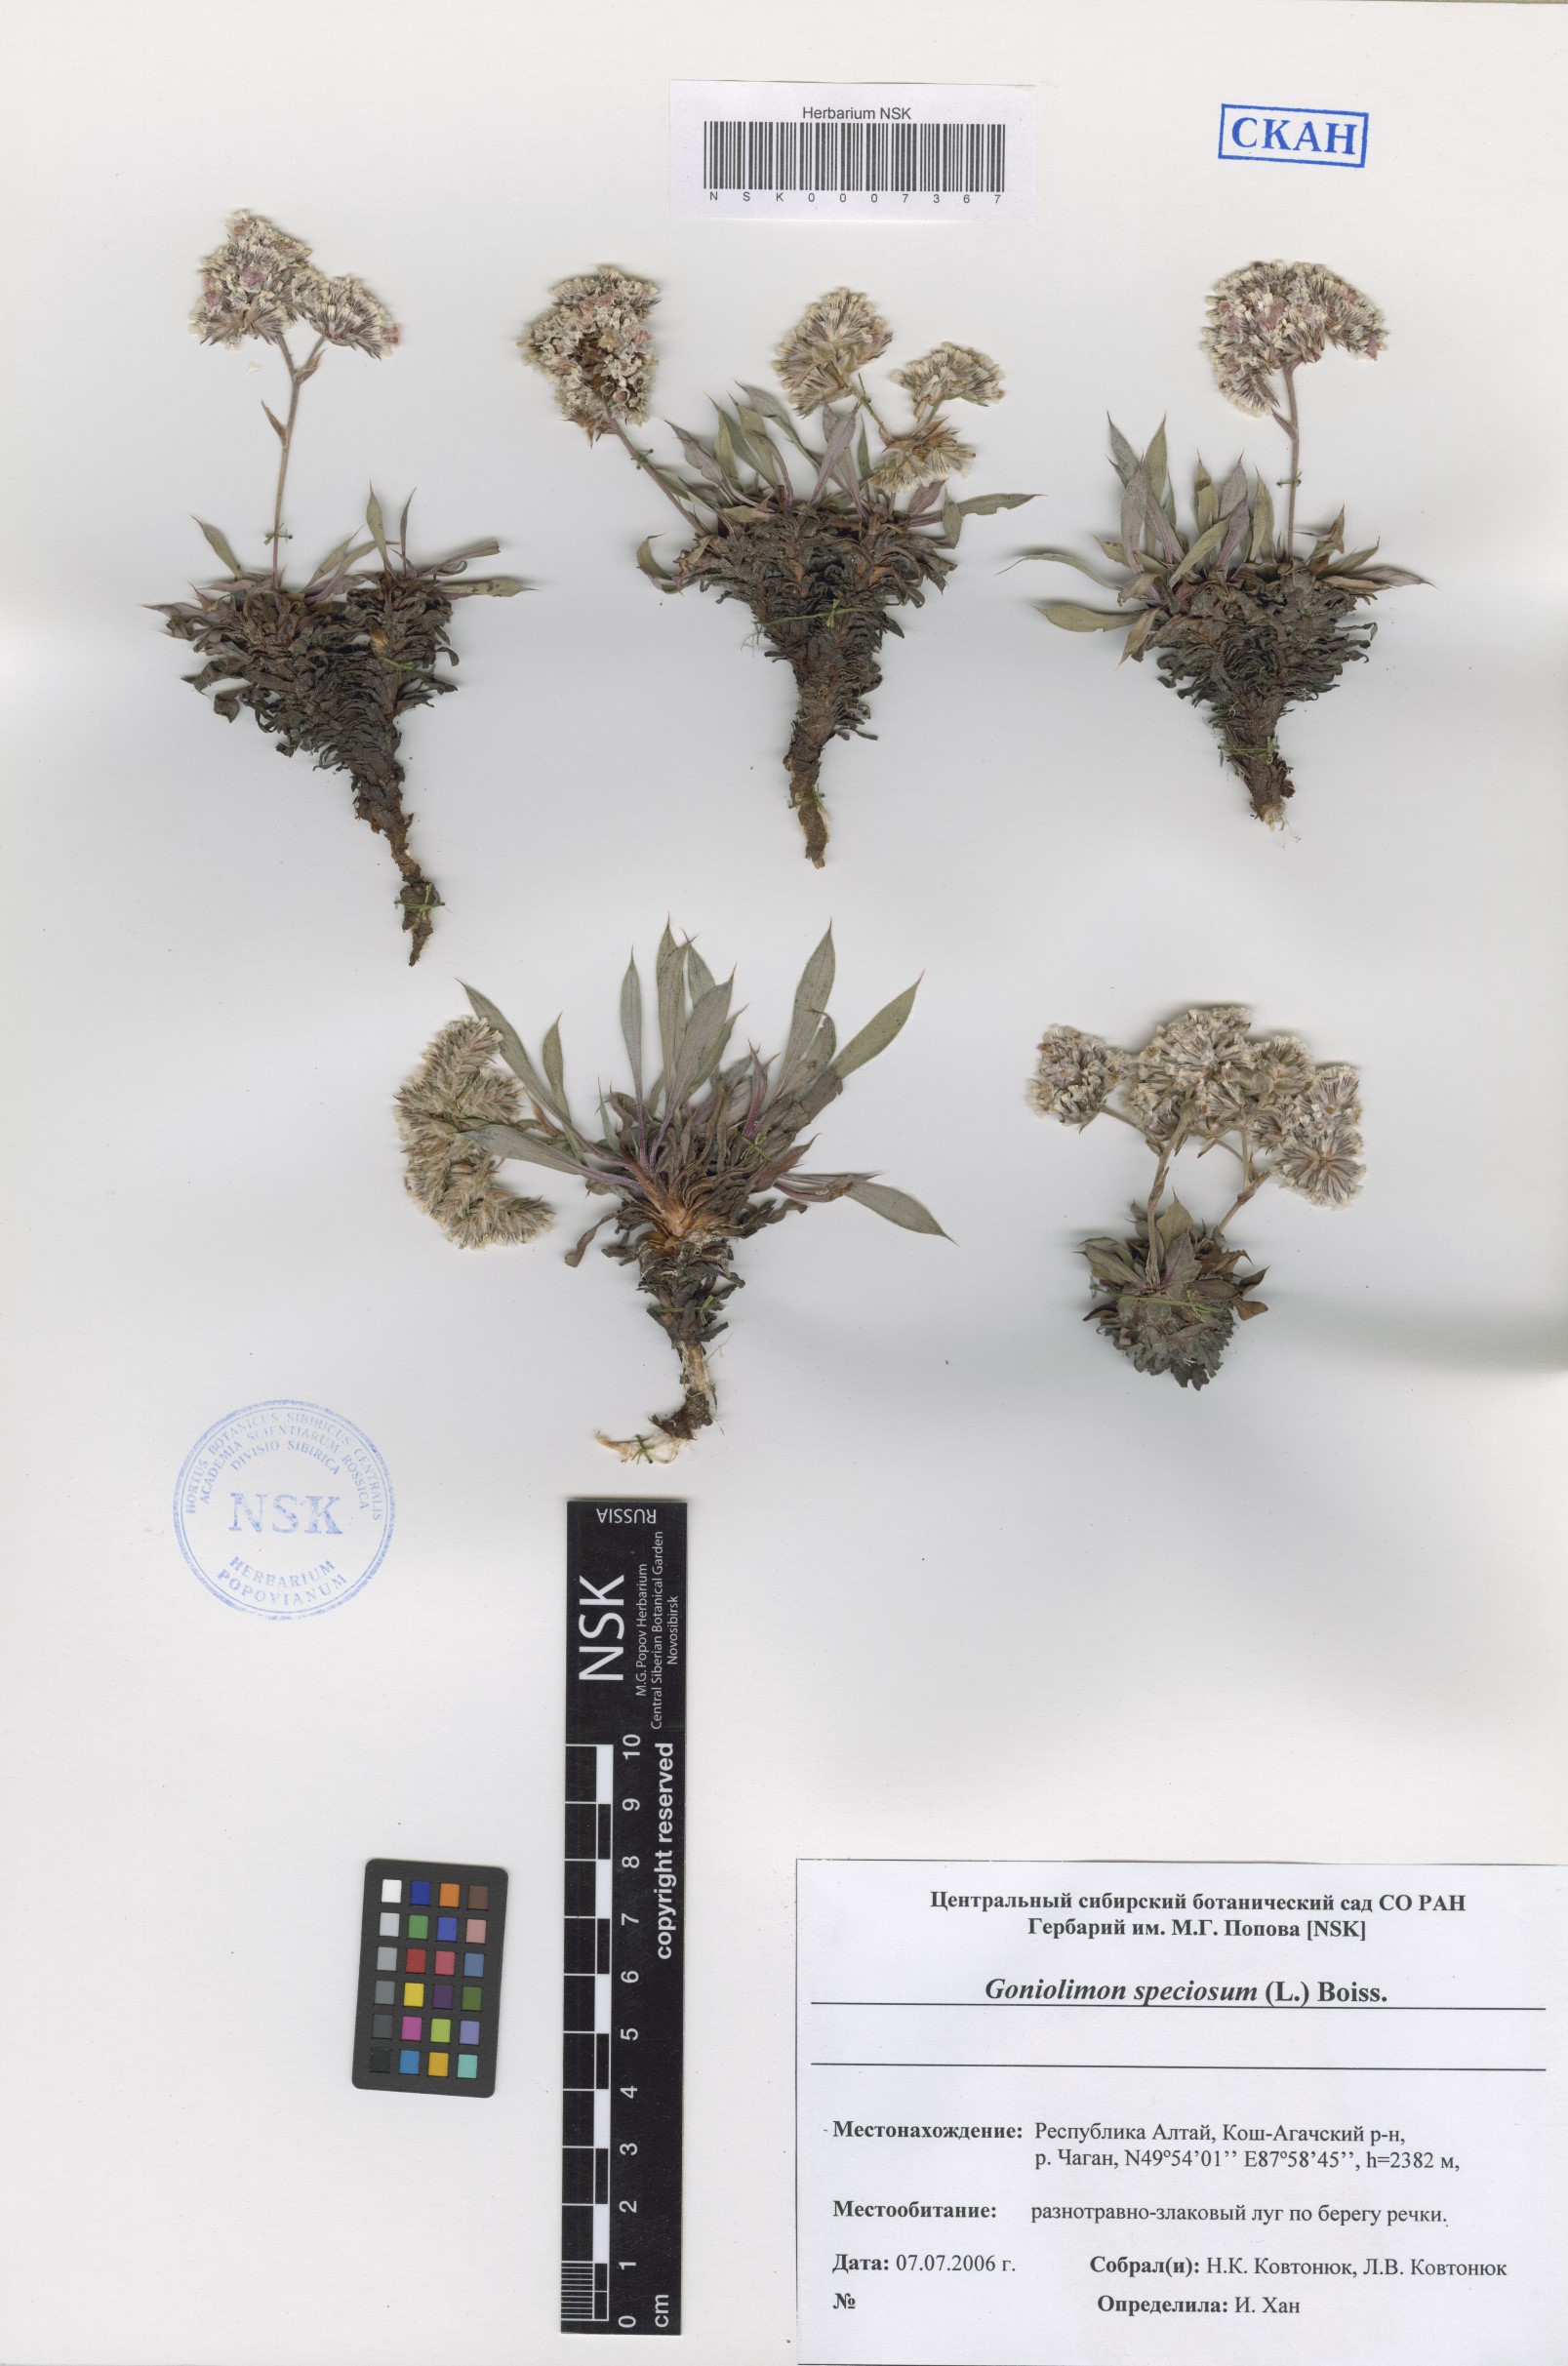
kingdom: Plantae
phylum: Tracheophyta
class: Magnoliopsida
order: Caryophyllales
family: Plumbaginaceae
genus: Goniolimon
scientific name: Goniolimon speciosum
